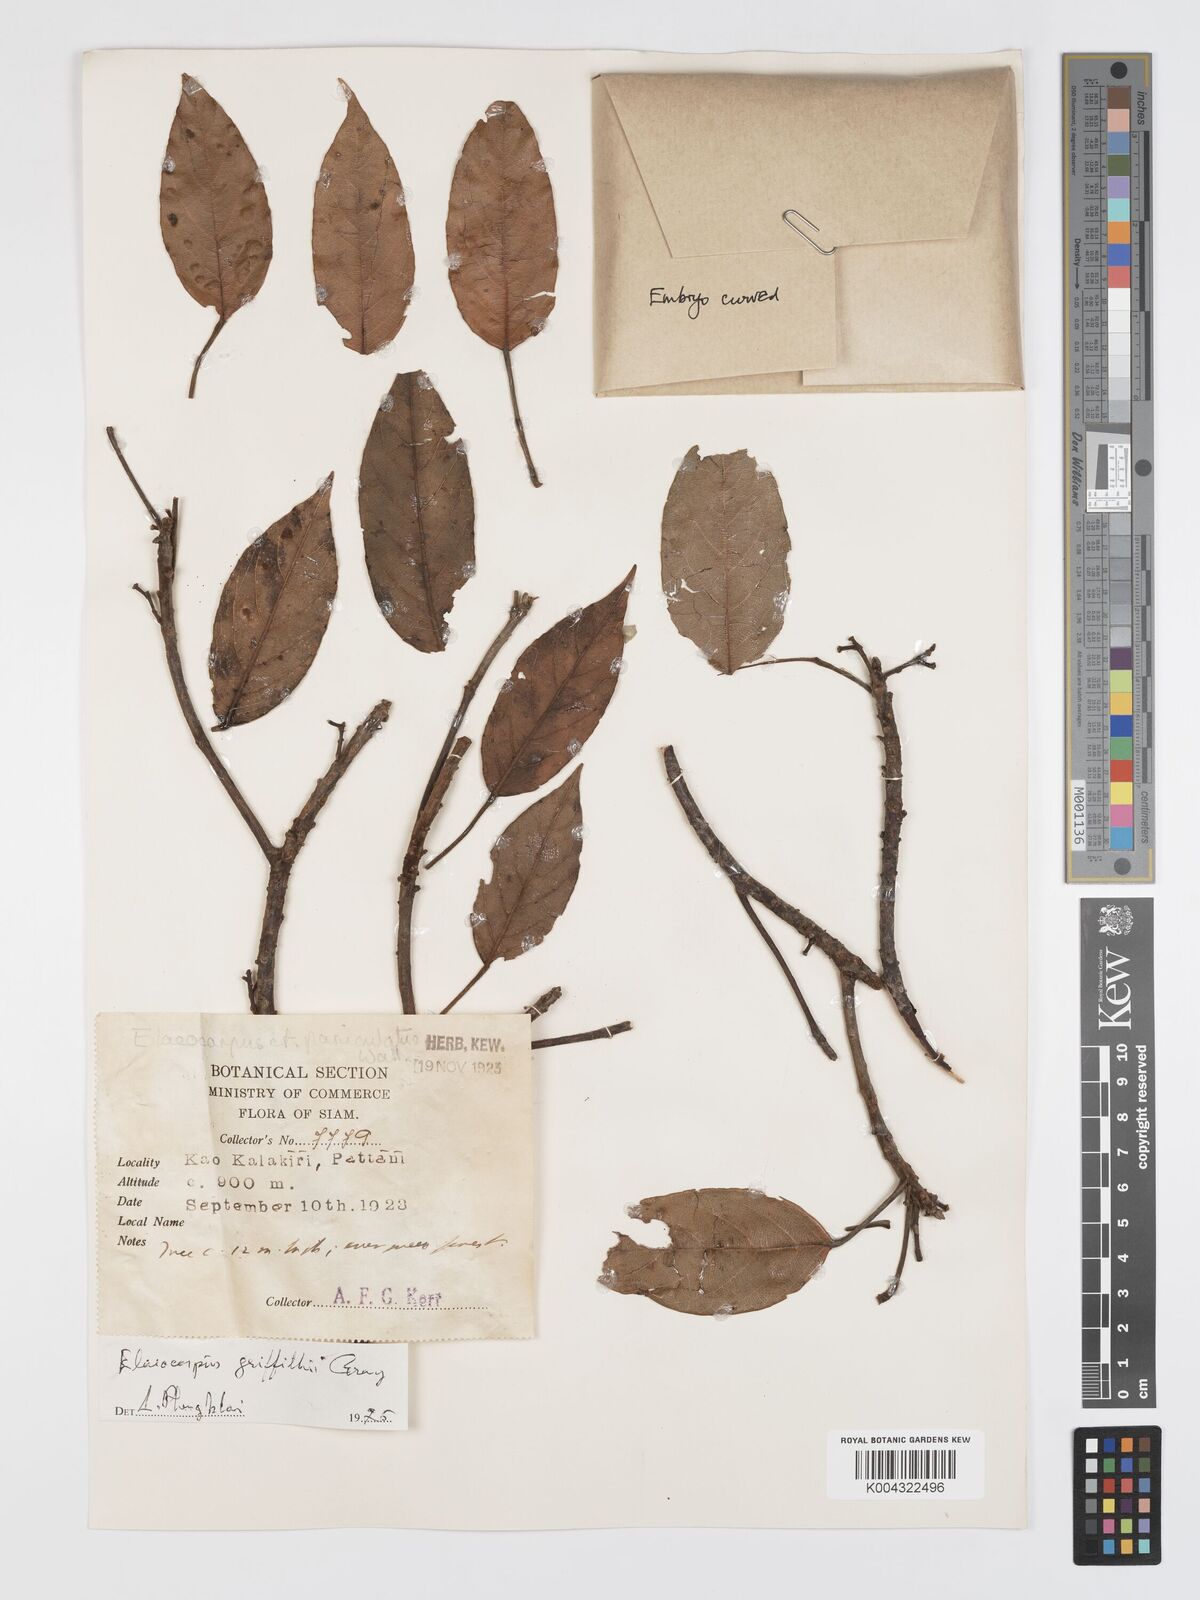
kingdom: Plantae
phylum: Tracheophyta
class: Magnoliopsida
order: Oxalidales
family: Elaeocarpaceae
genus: Elaeocarpus
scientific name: Elaeocarpus griffithii
